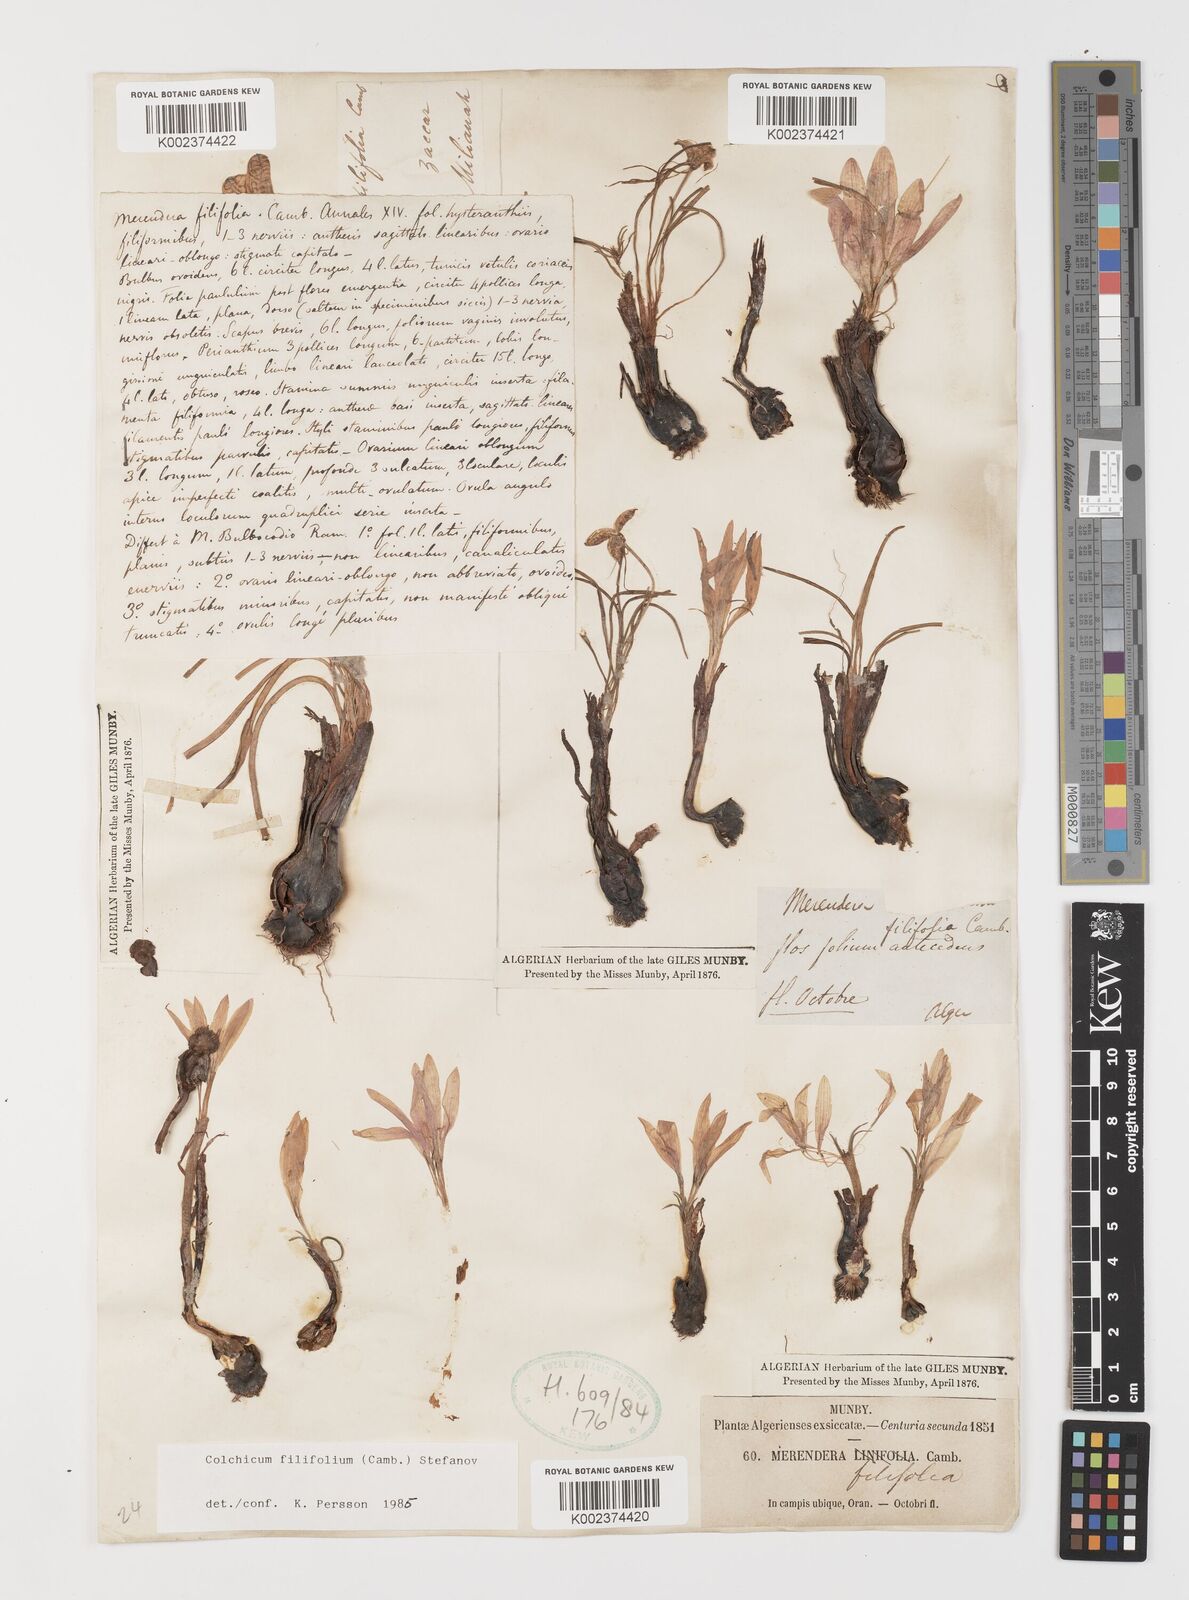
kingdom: Plantae
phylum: Tracheophyta
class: Liliopsida
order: Liliales
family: Colchicaceae
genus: Colchicum
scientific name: Colchicum filifolium
